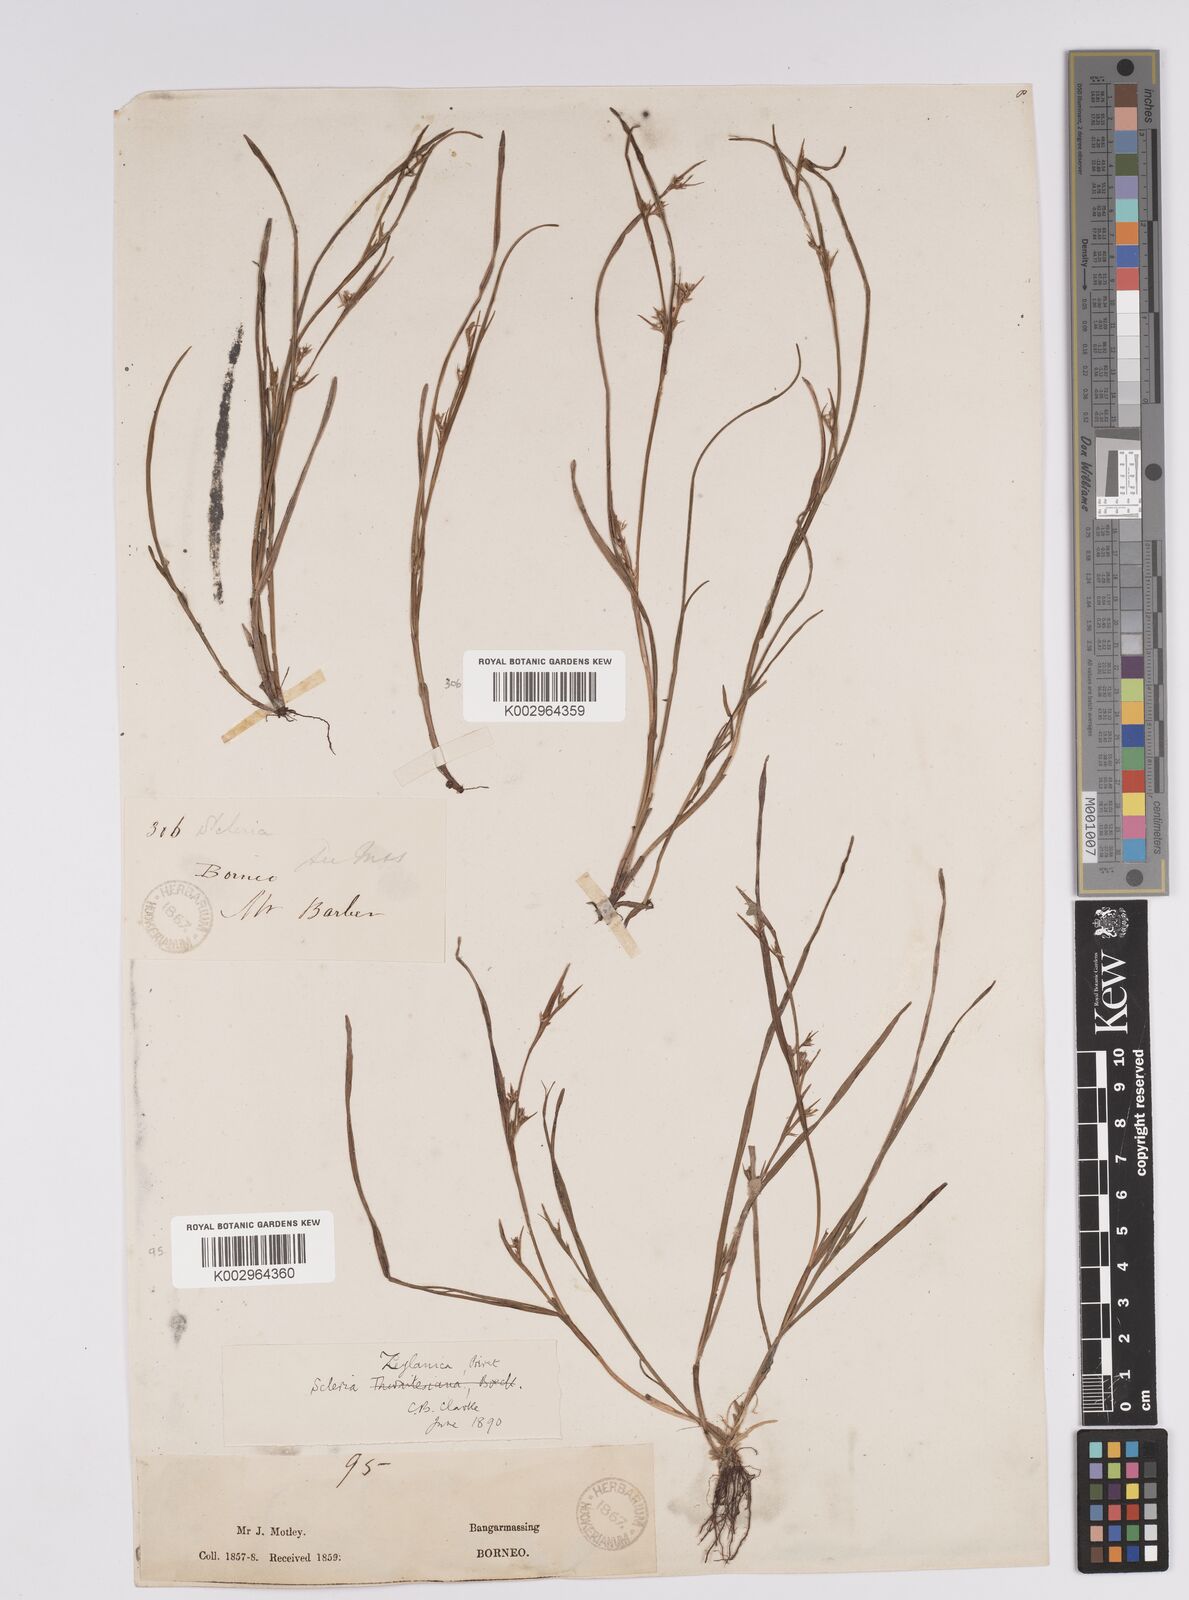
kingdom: Plantae
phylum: Tracheophyta
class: Liliopsida
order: Poales
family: Cyperaceae
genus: Scleria
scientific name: Scleria levis
